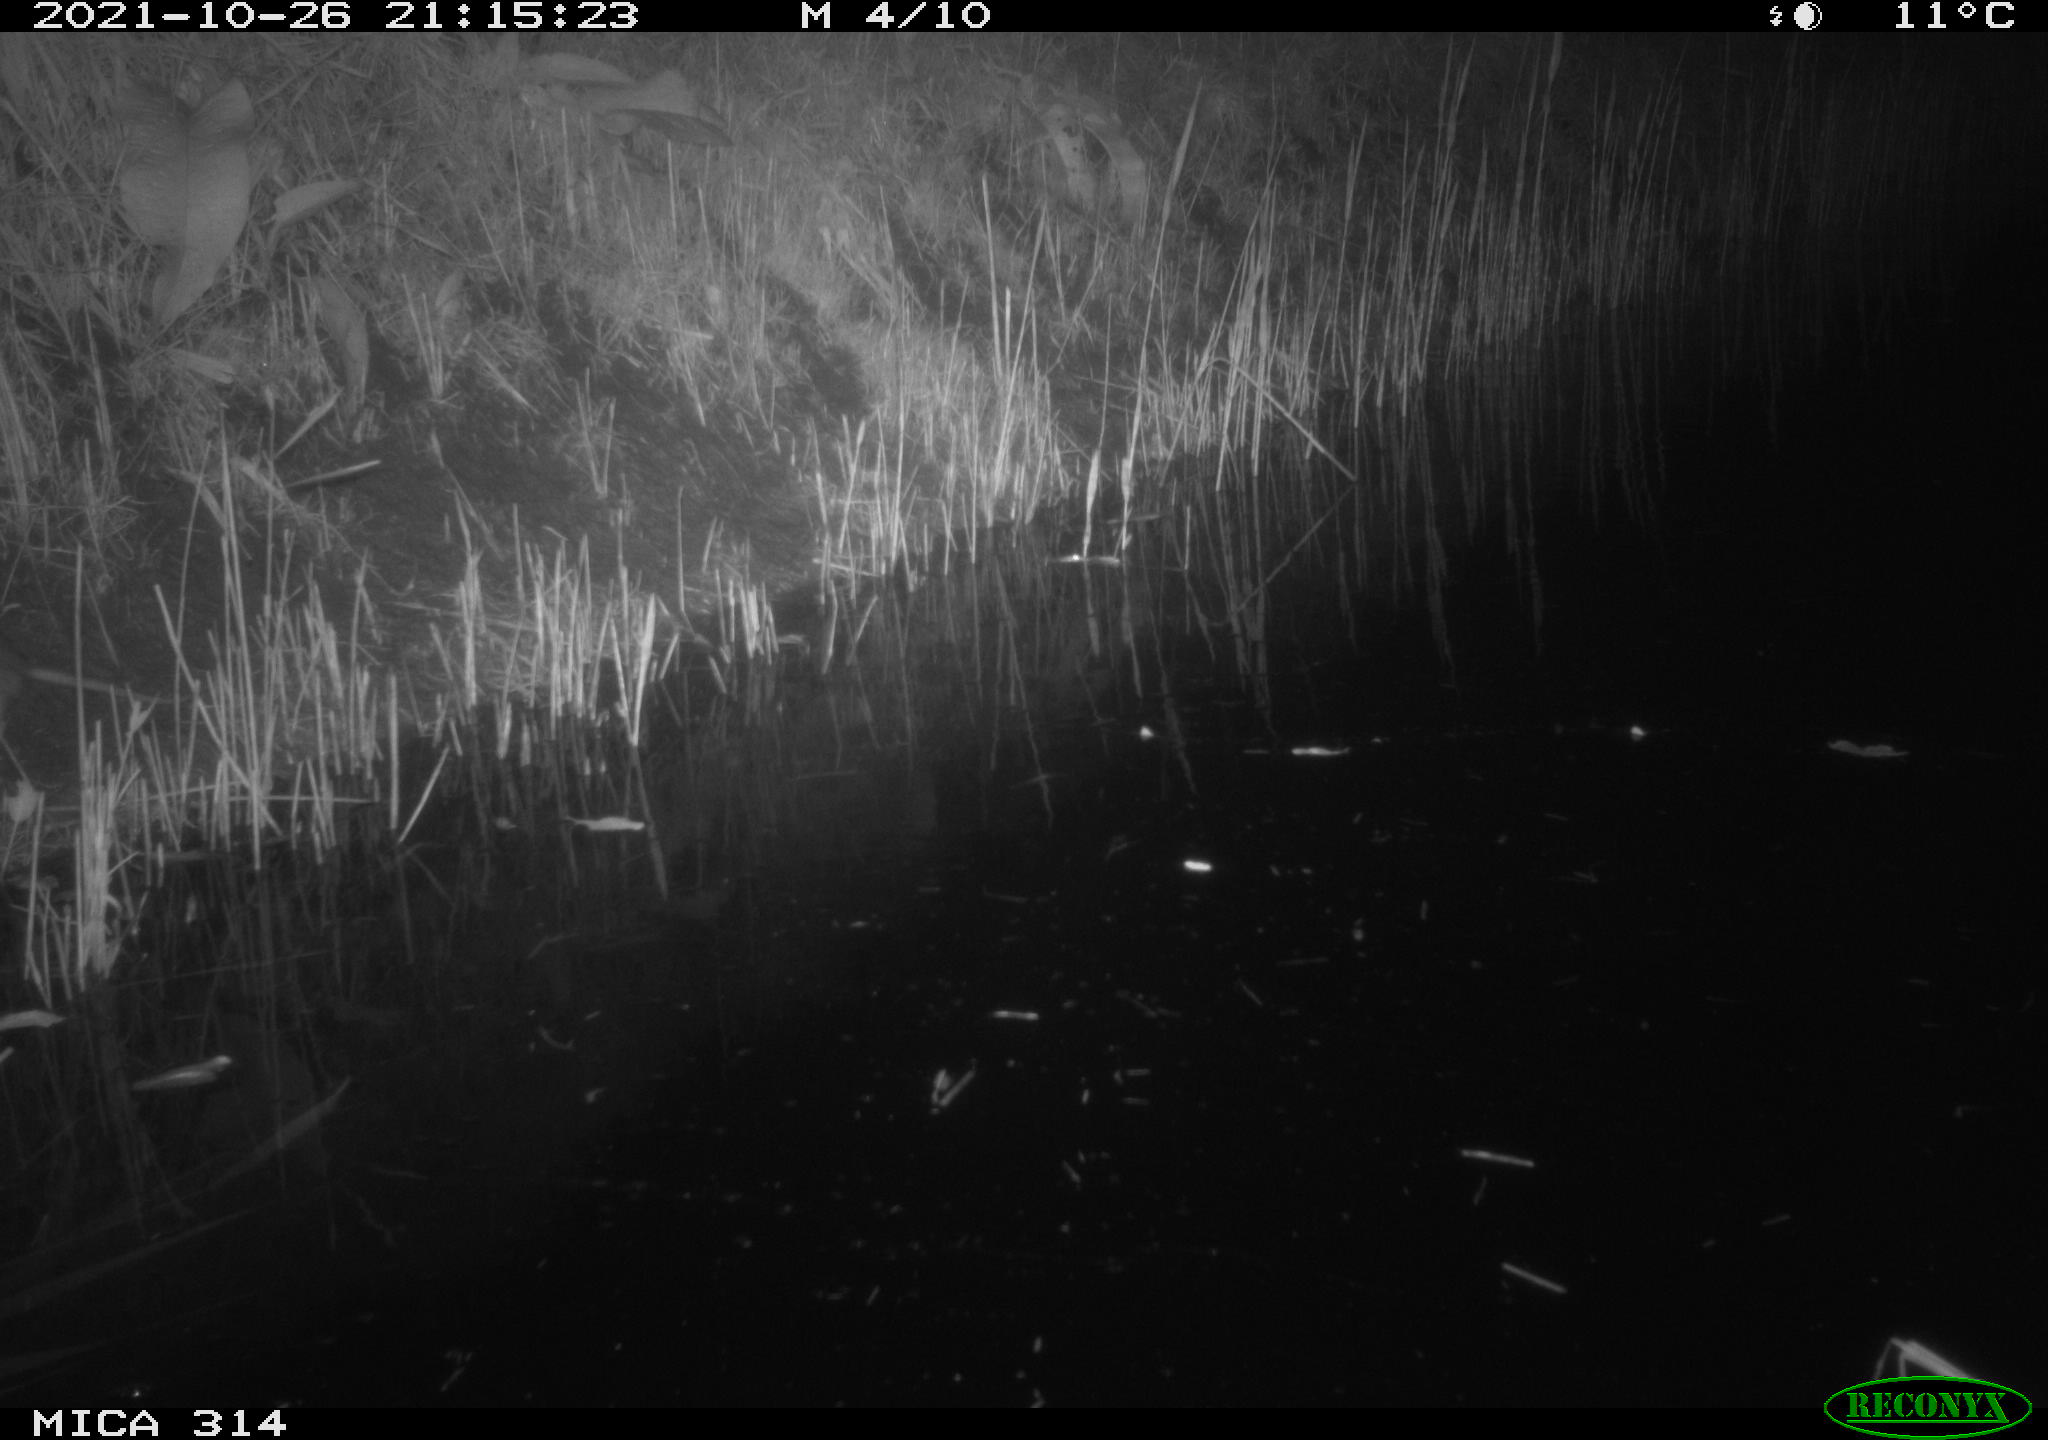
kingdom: Animalia
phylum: Chordata
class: Mammalia
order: Rodentia
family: Muridae
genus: Rattus
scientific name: Rattus norvegicus
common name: Brown rat
